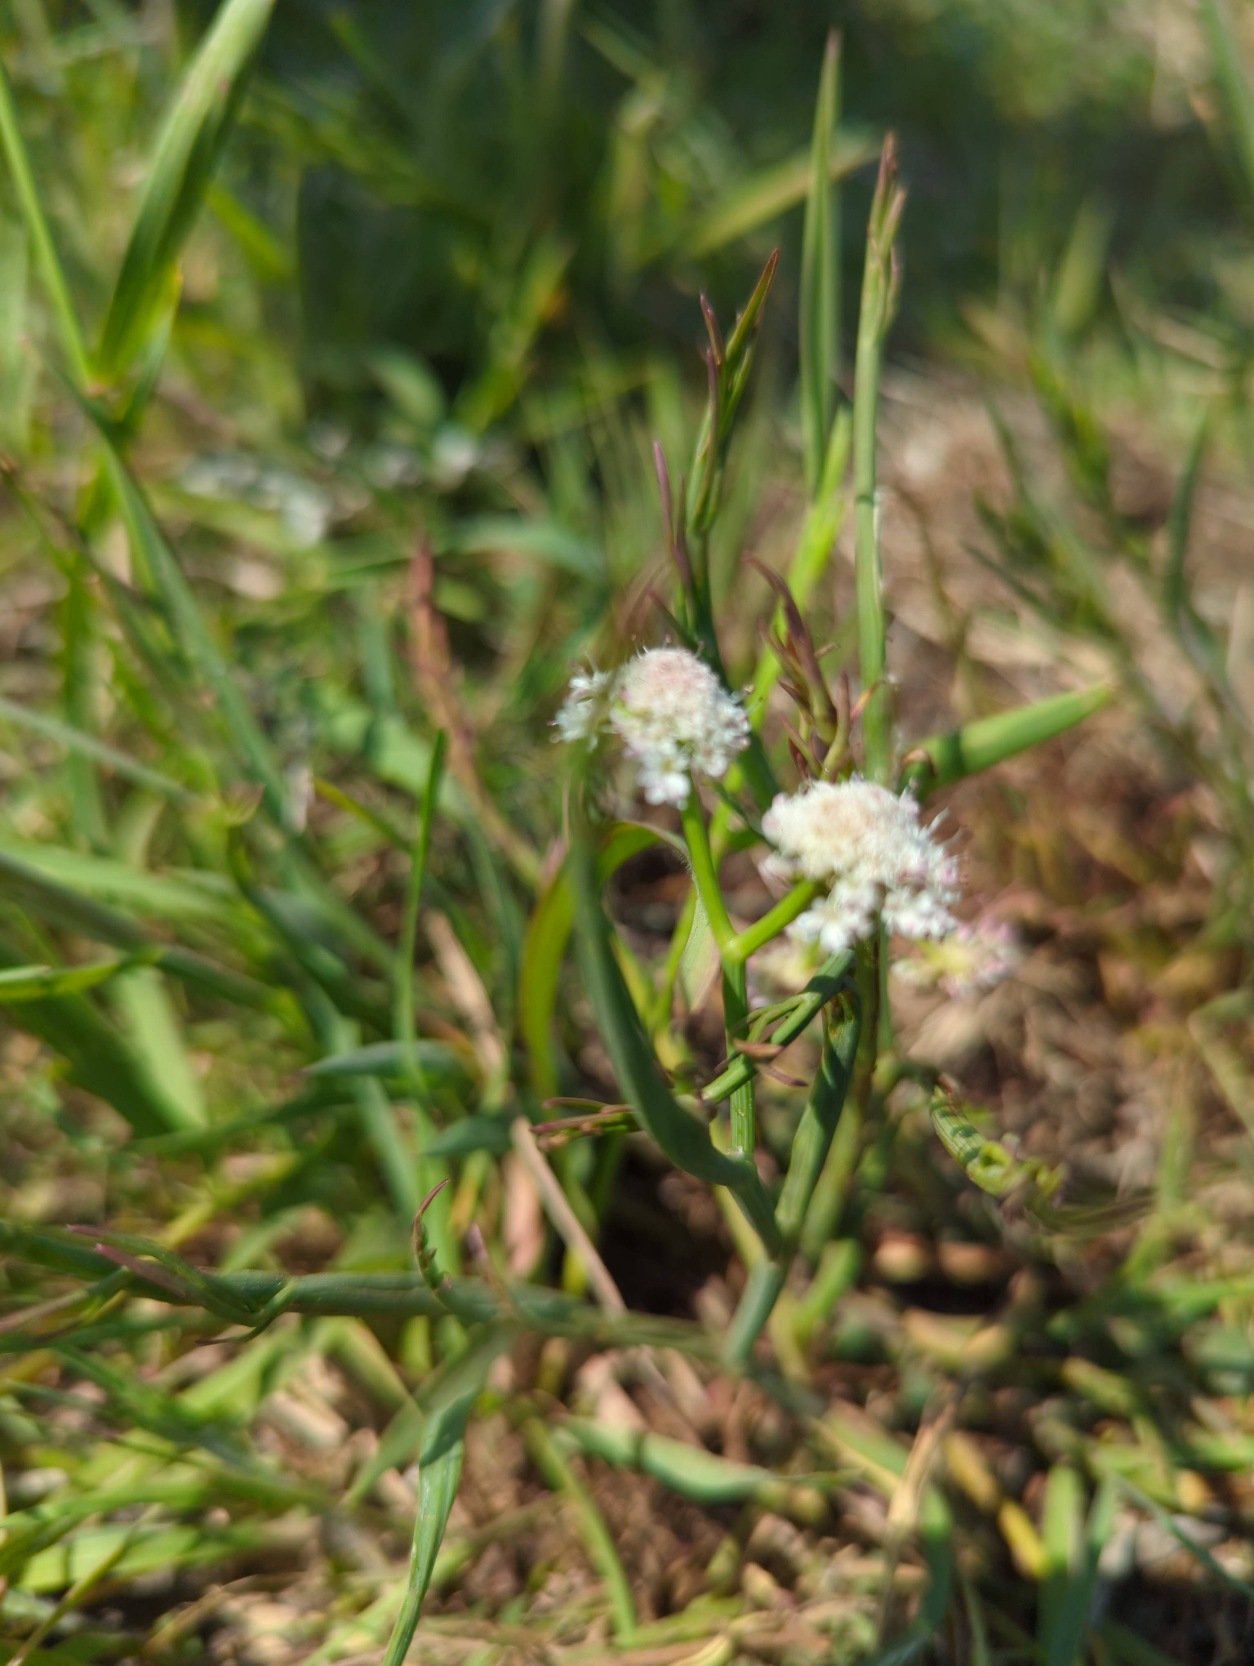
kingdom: Plantae
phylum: Tracheophyta
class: Magnoliopsida
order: Apiales
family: Apiaceae
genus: Oenanthe
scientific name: Oenanthe fistulosa
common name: Vand-klaseskærm
